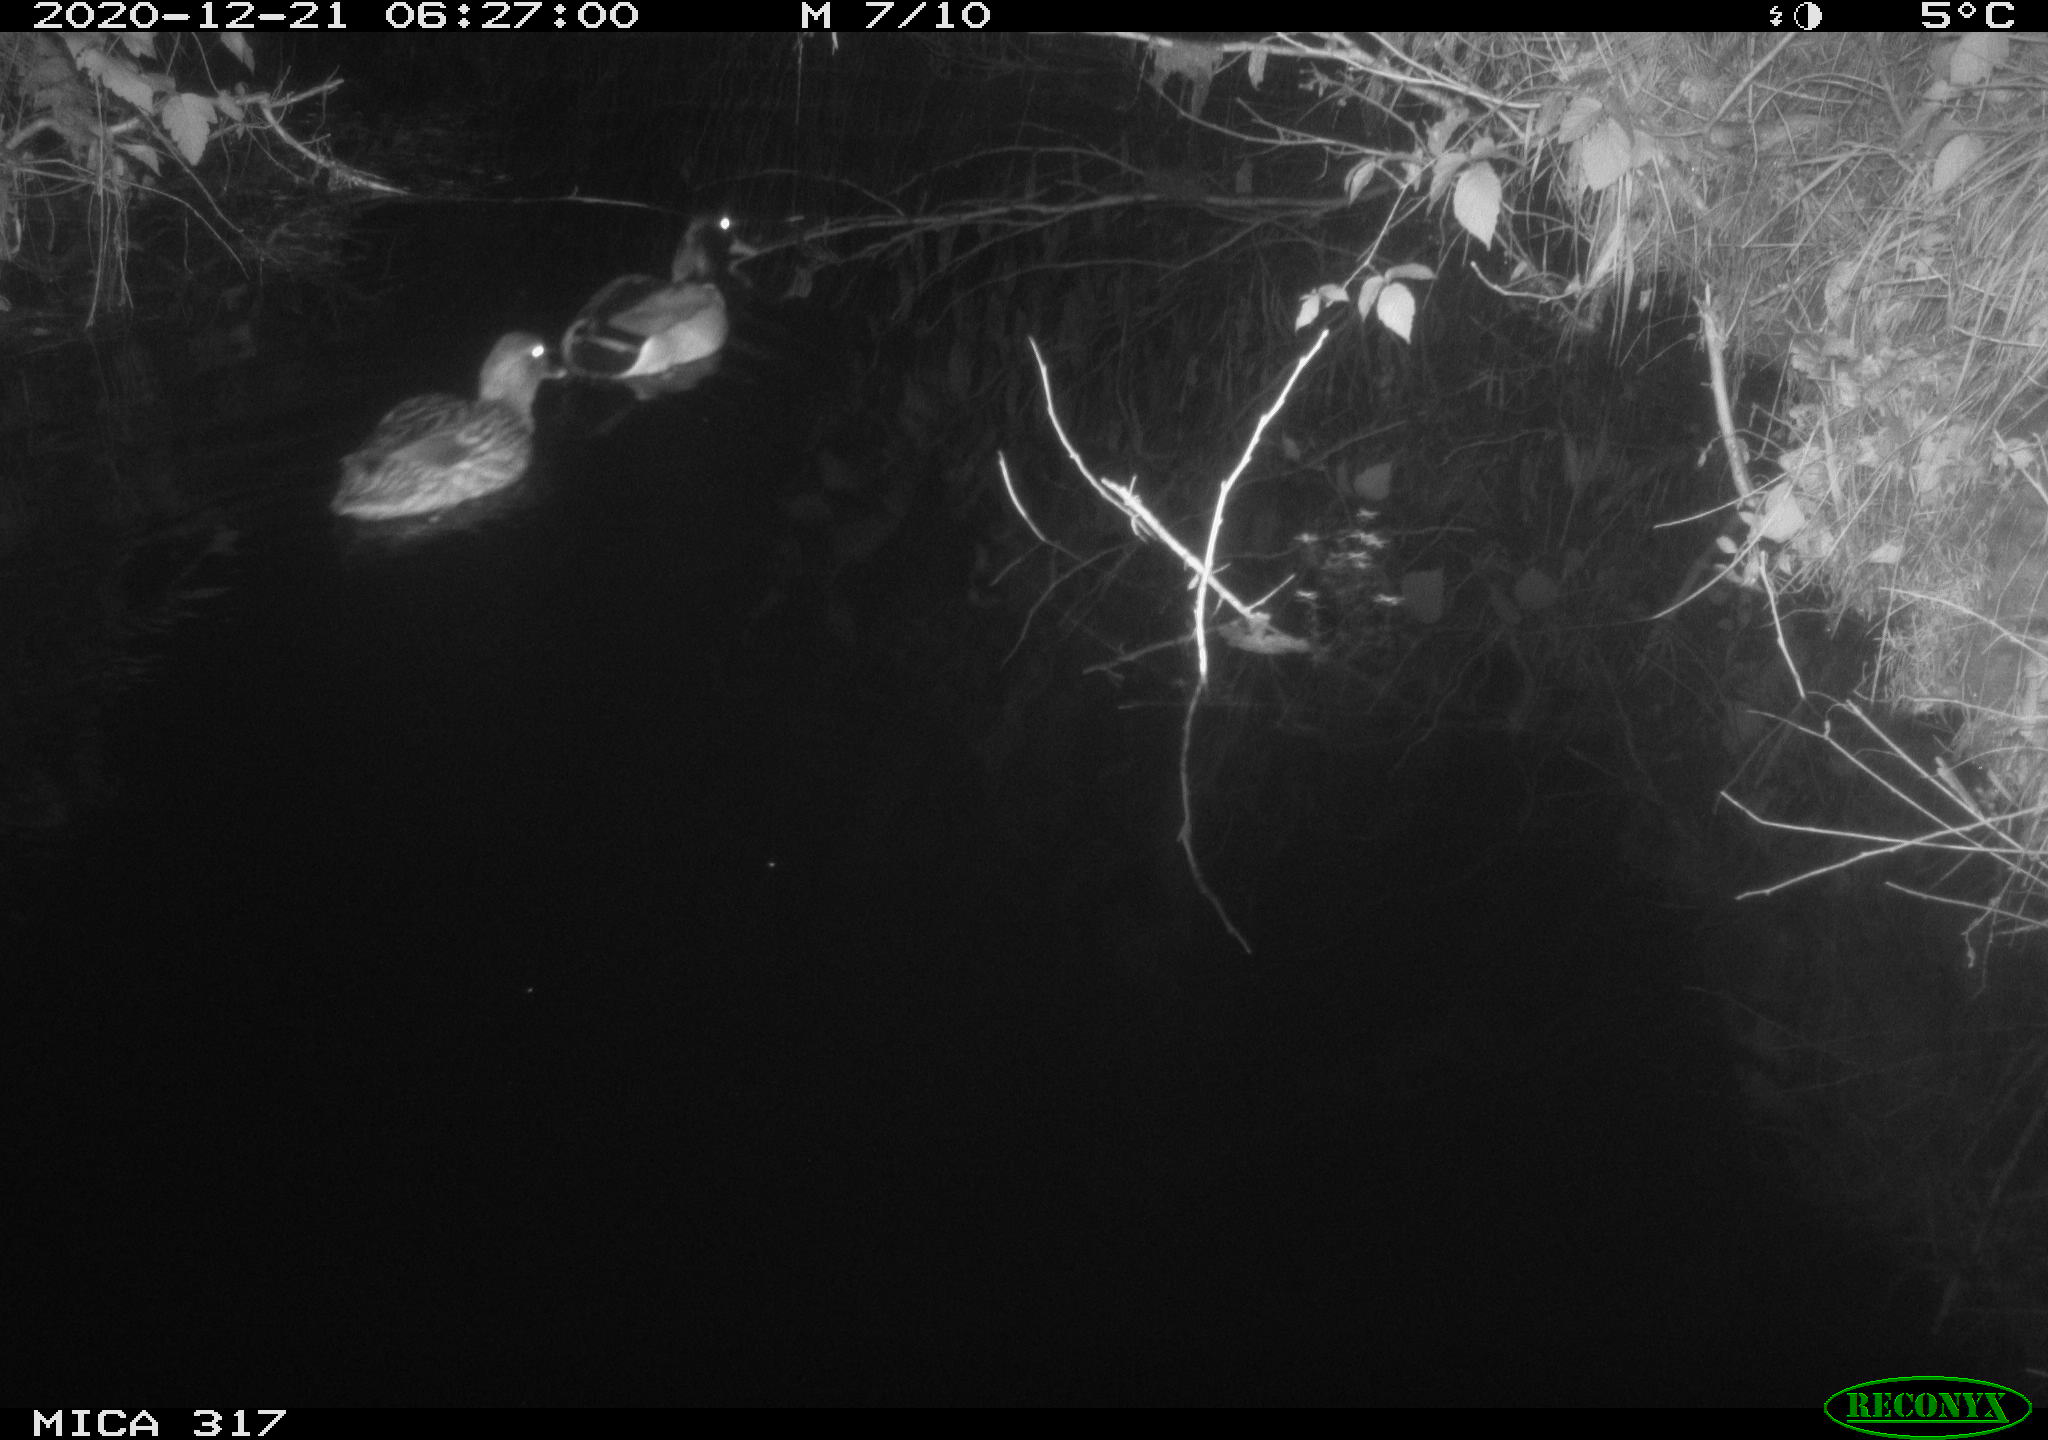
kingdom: Animalia
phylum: Chordata
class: Aves
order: Anseriformes
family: Anatidae
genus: Anas
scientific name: Anas platyrhynchos
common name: Mallard
